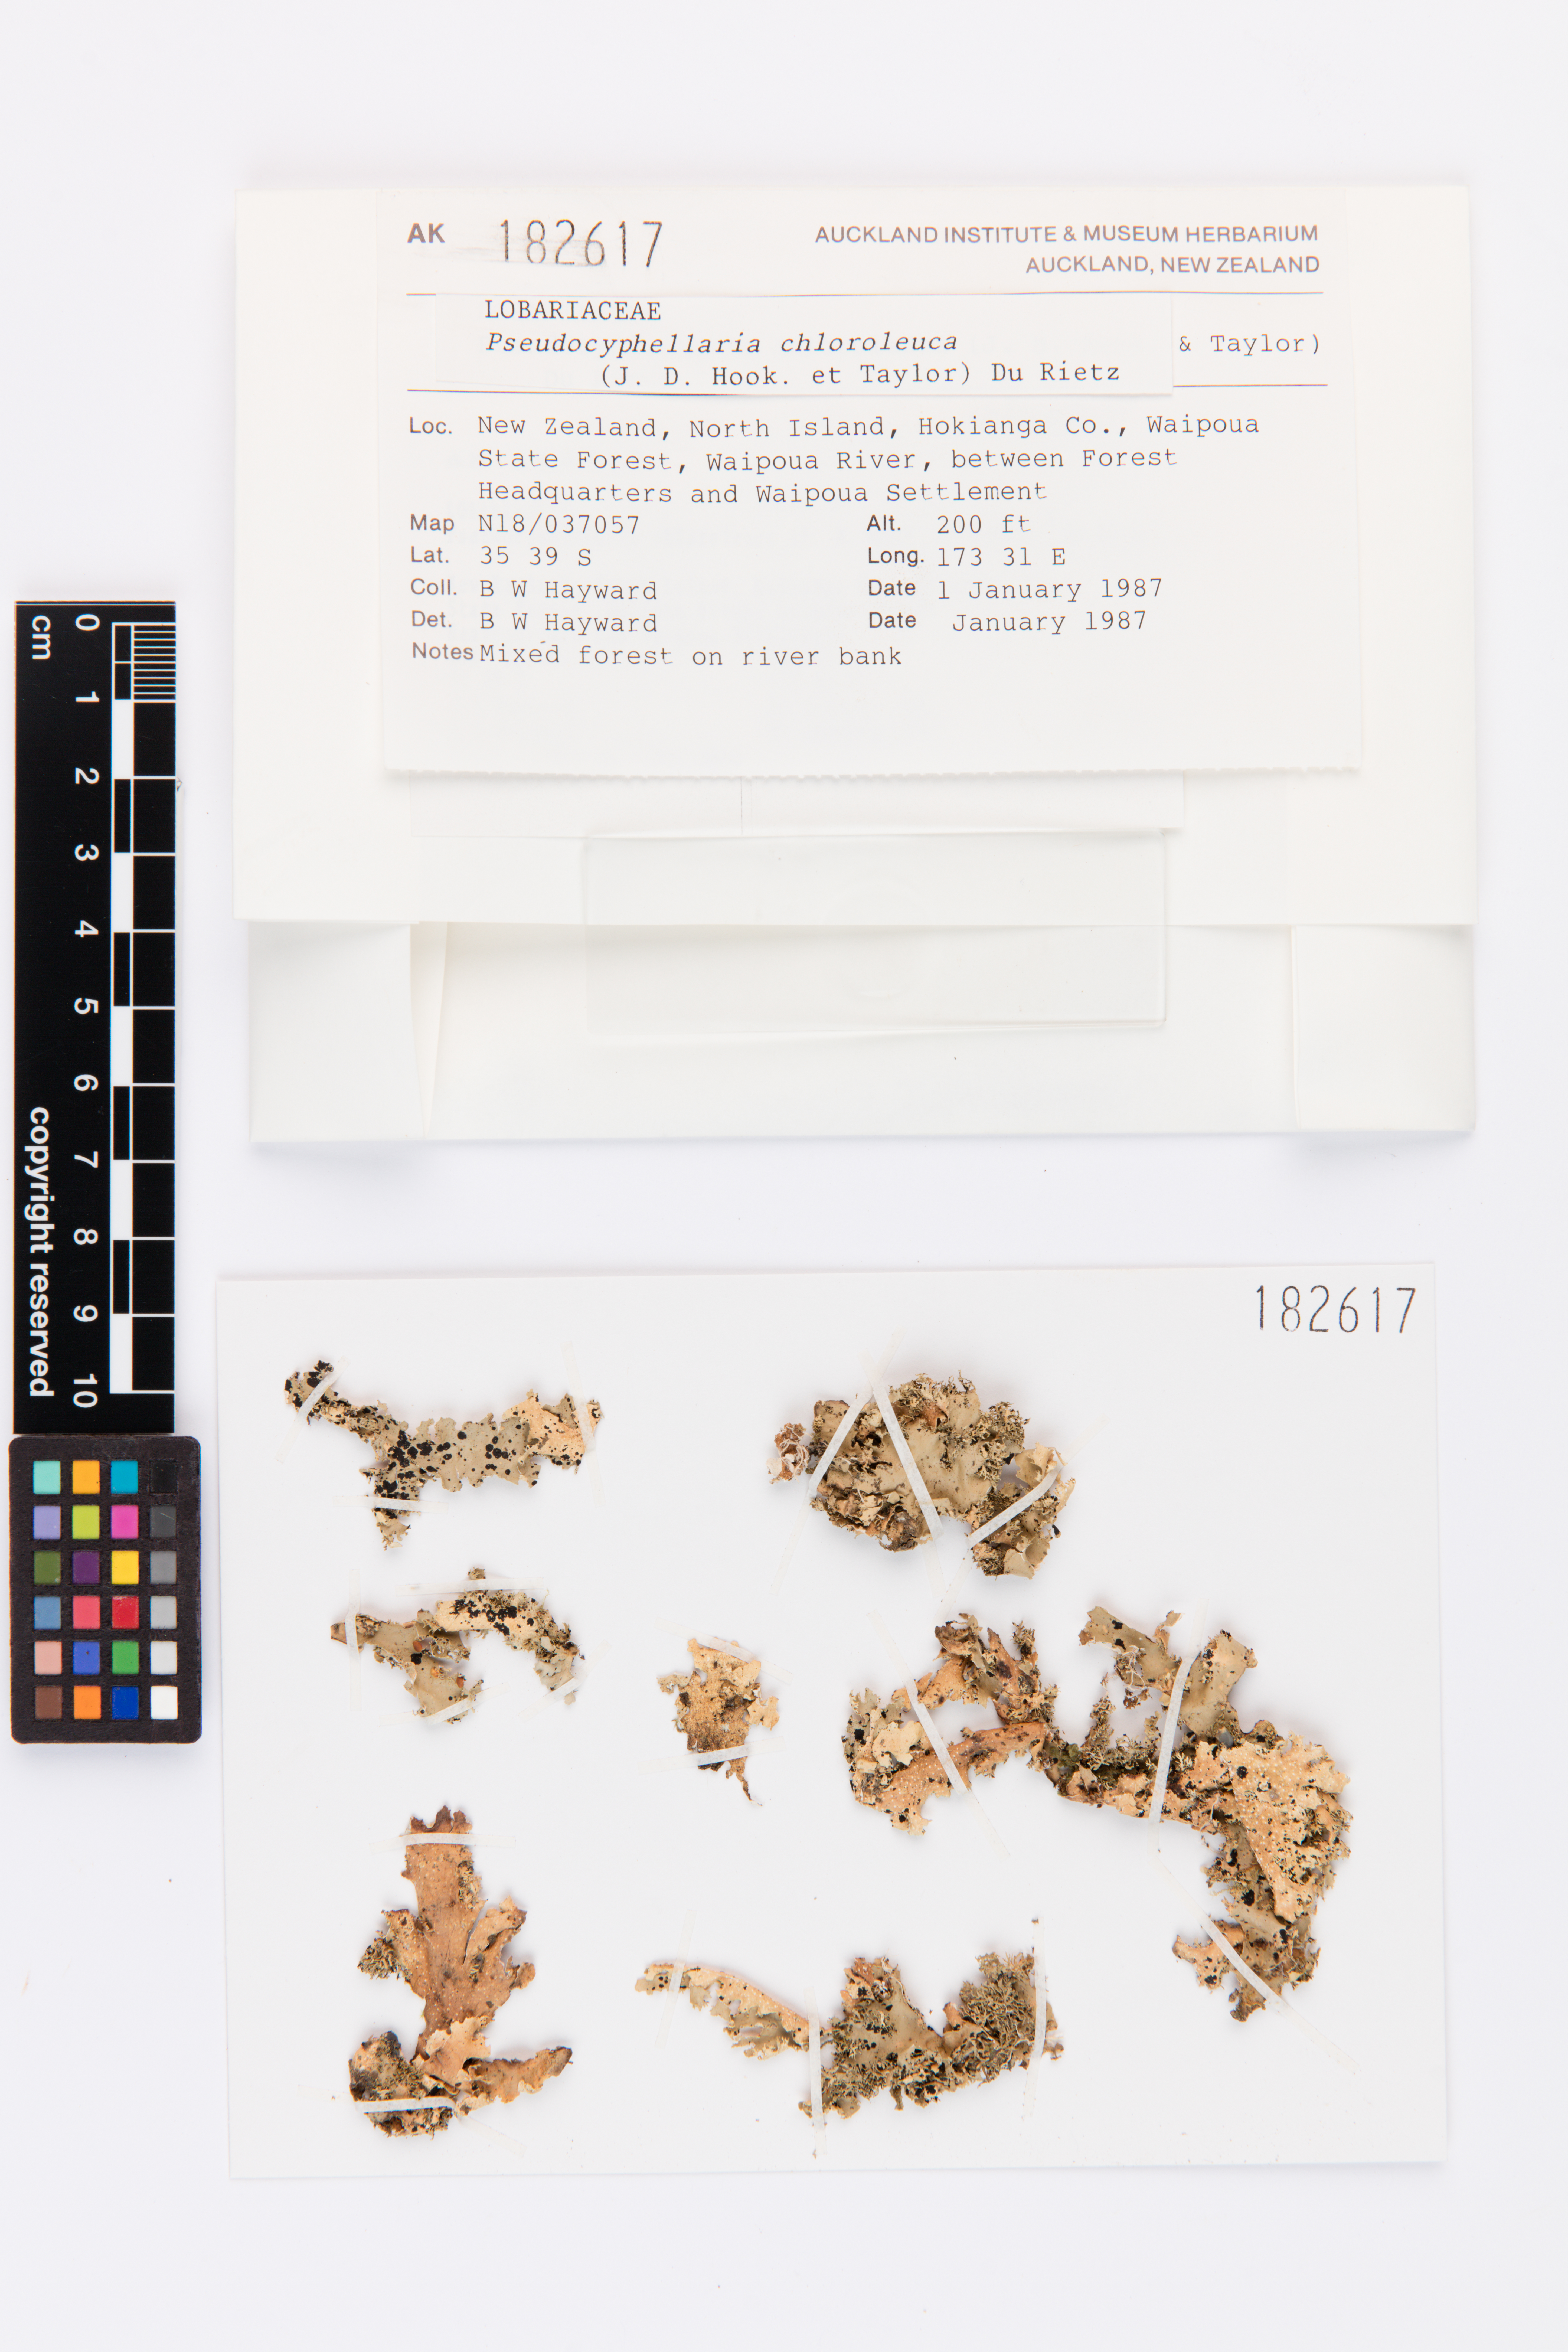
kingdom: Fungi
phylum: Ascomycota
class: Lecanoromycetes
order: Peltigerales
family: Lobariaceae
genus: Pseudocyphellaria
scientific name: Pseudocyphellaria chloroleuca
